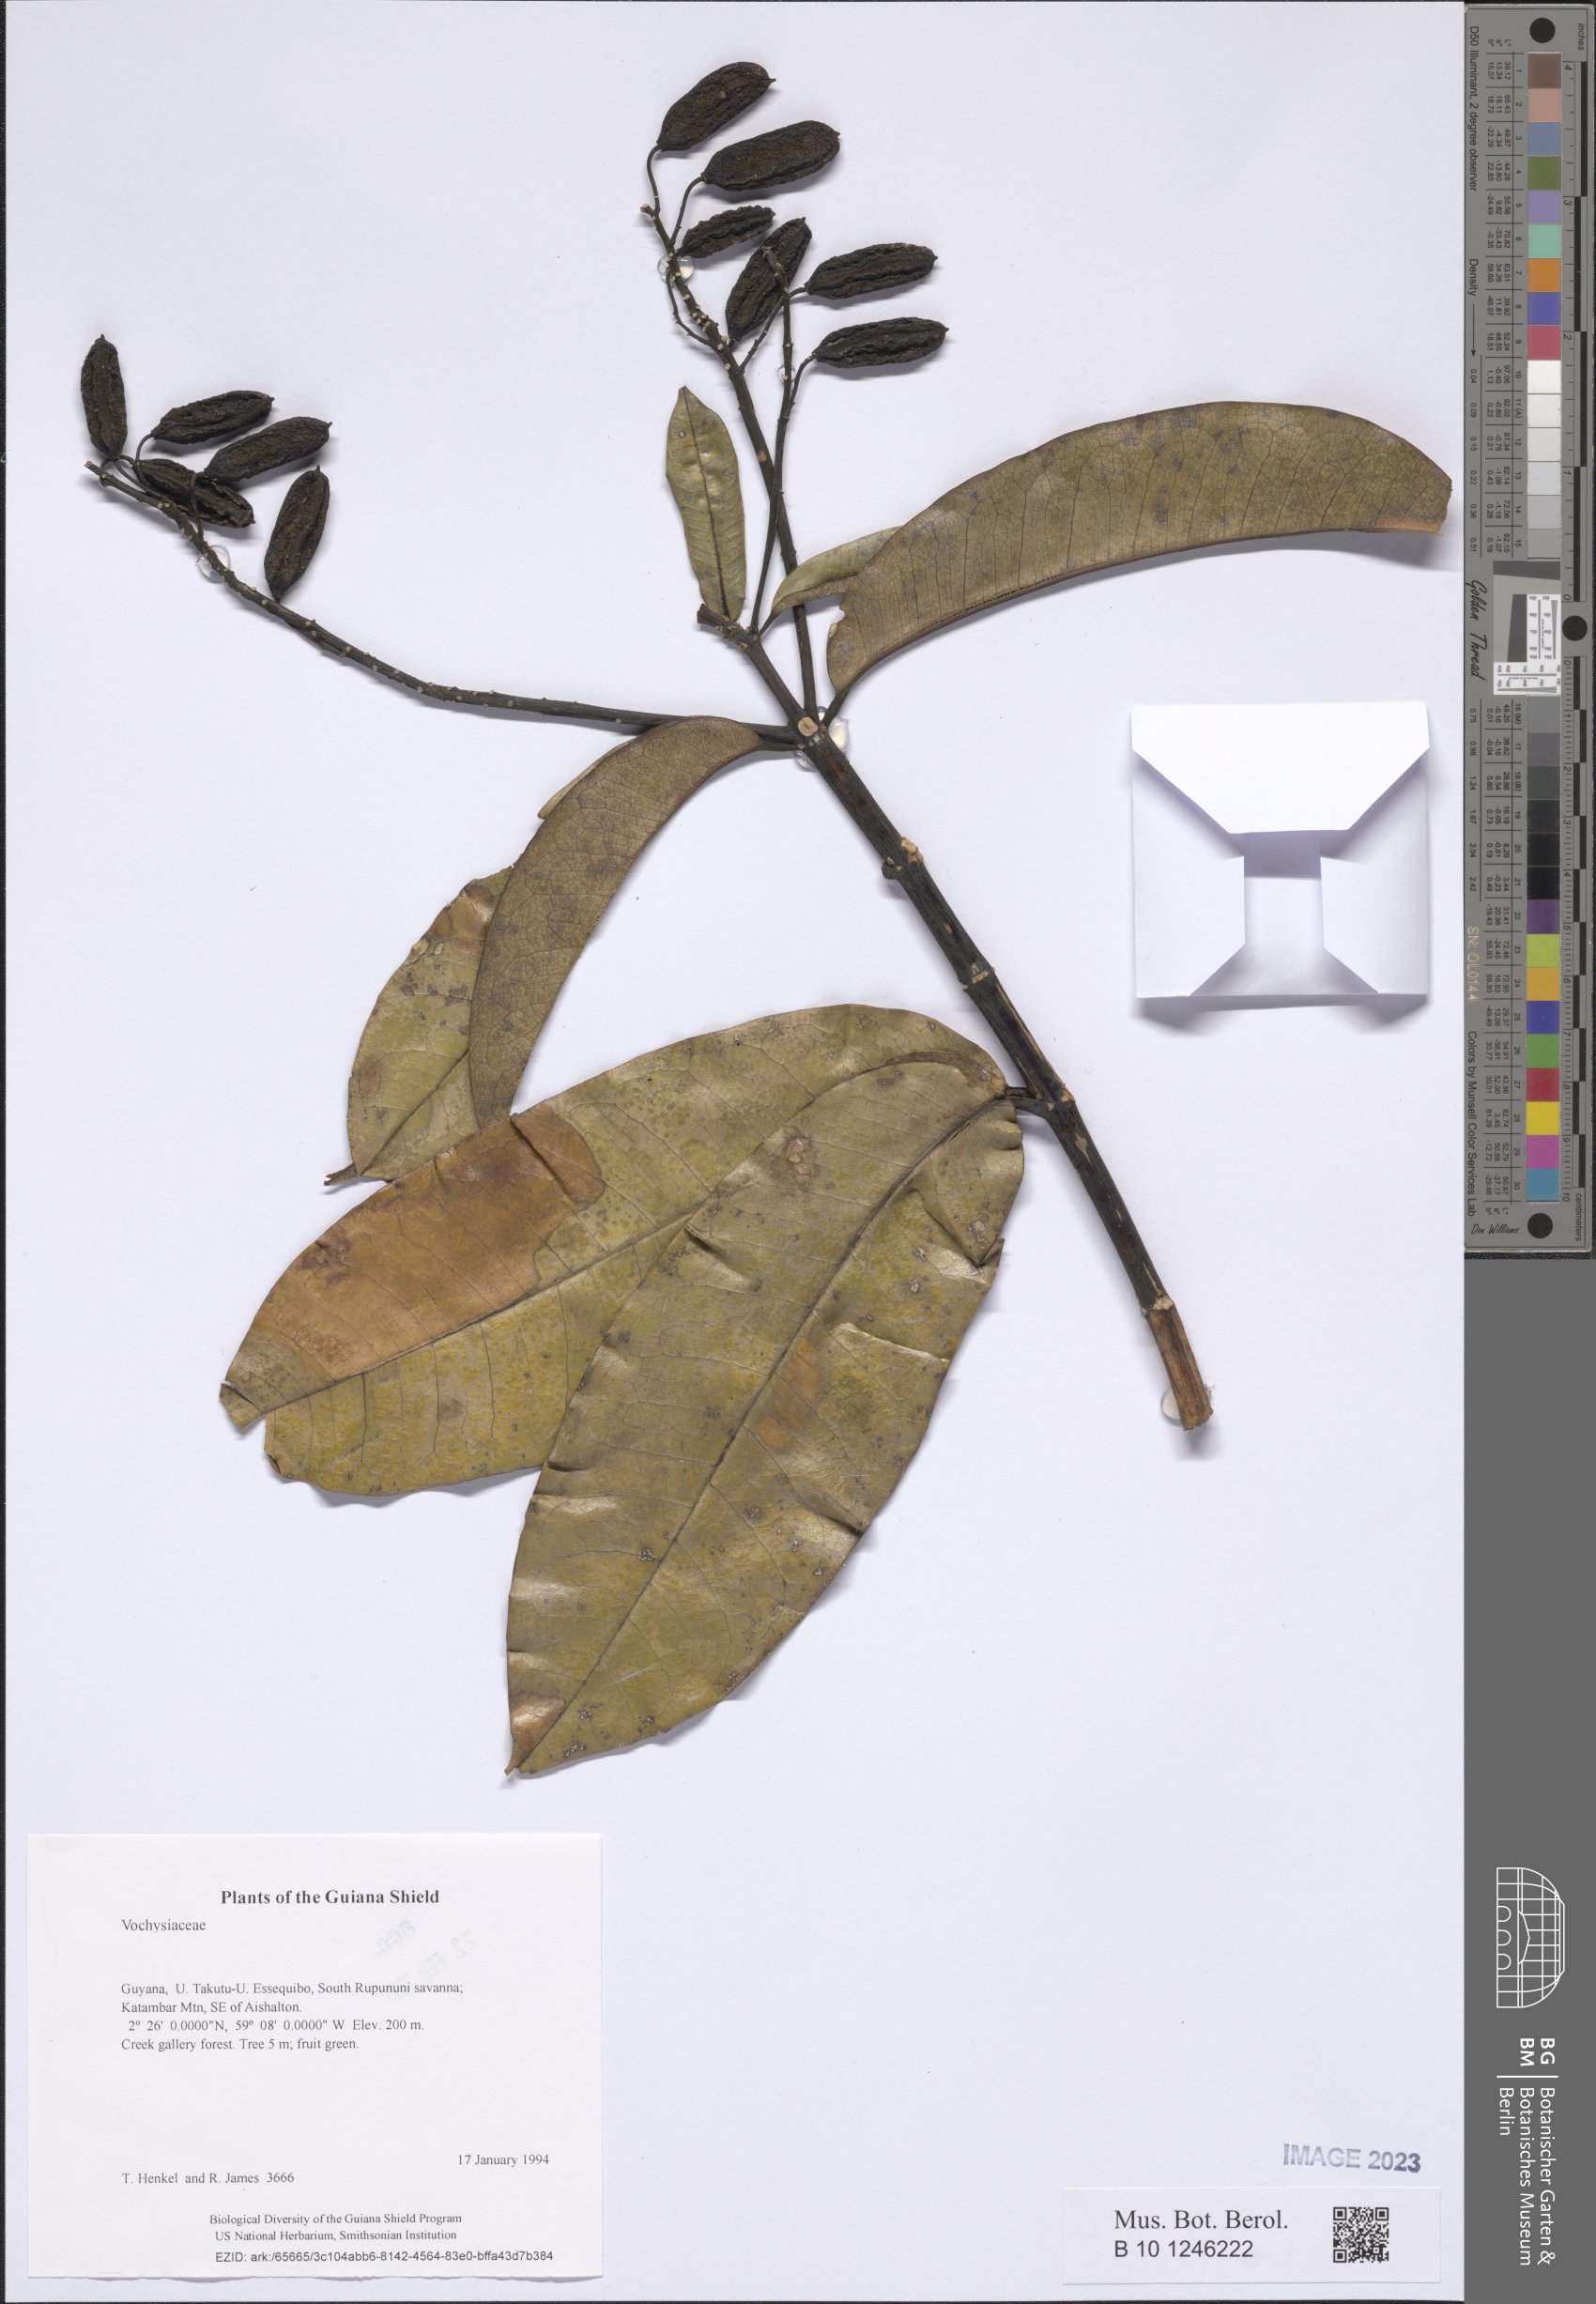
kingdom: Plantae
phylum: Tracheophyta
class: Magnoliopsida
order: Myrtales
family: Vochysiaceae
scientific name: Vochysiaceae
